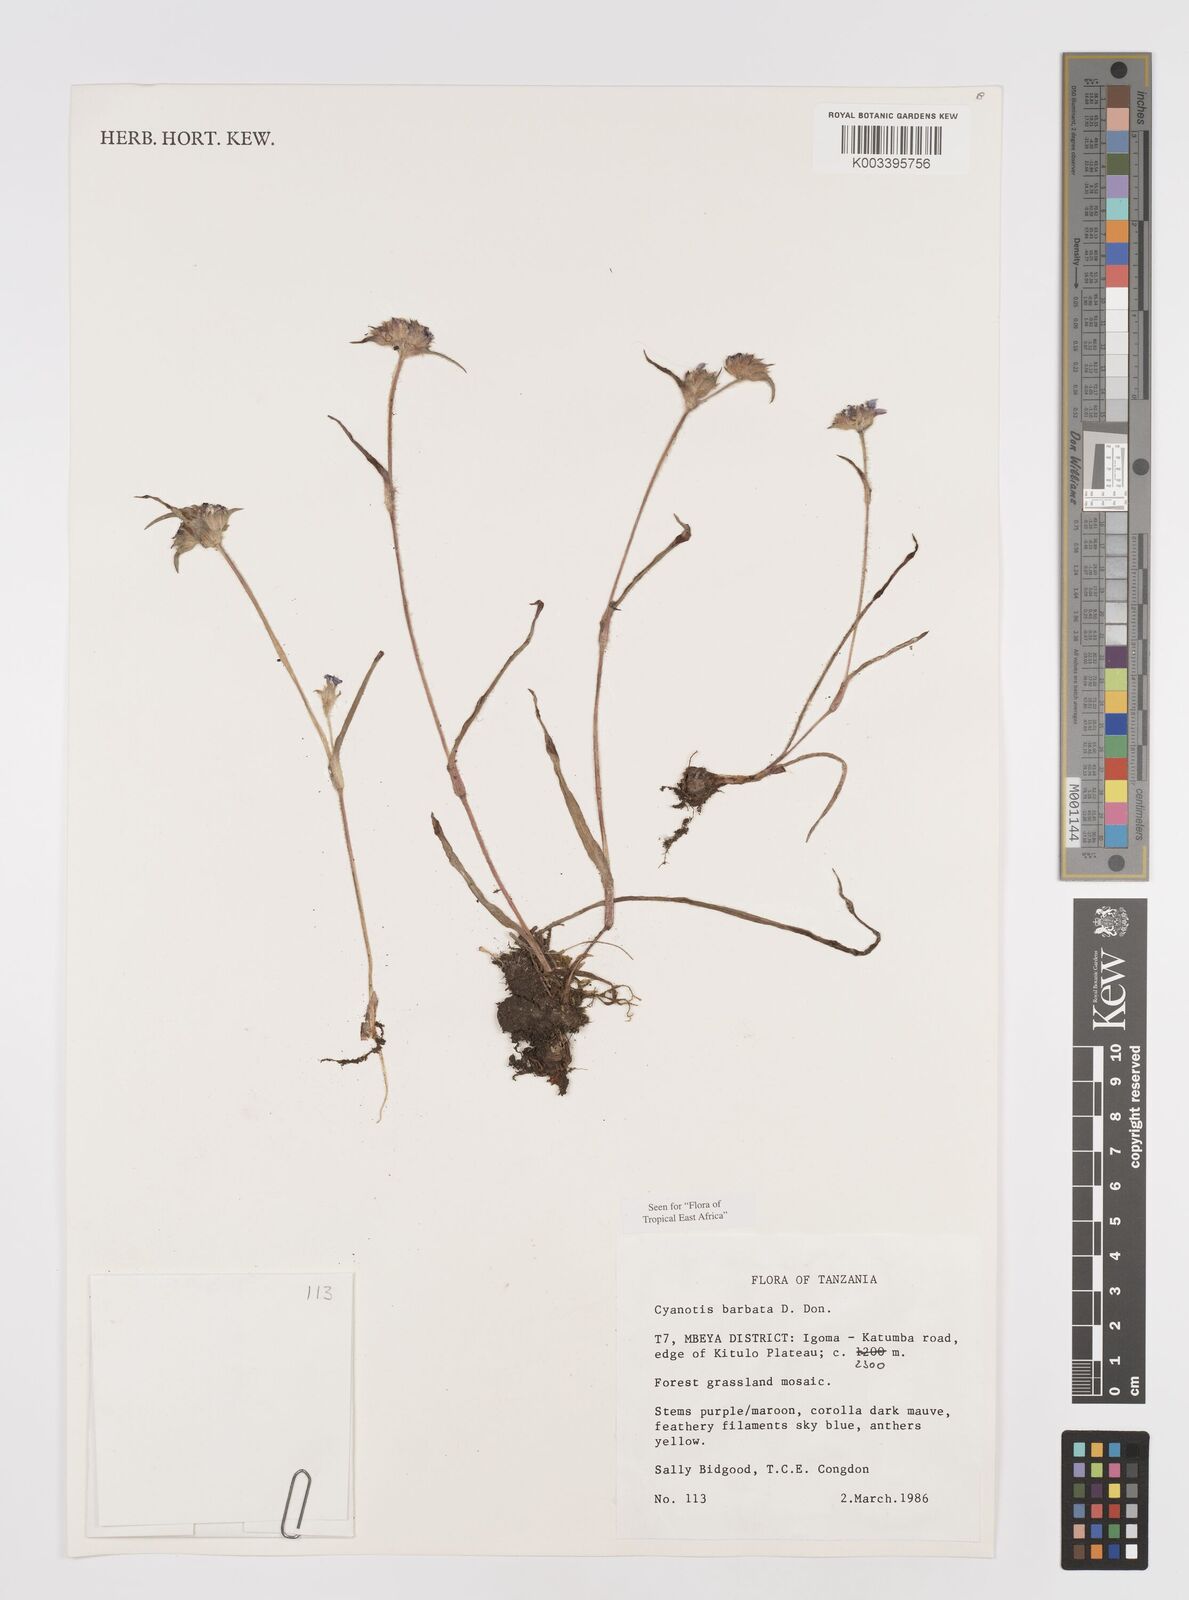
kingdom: Plantae
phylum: Tracheophyta
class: Liliopsida
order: Commelinales
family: Commelinaceae
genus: Cyanotis
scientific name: Cyanotis vaga
